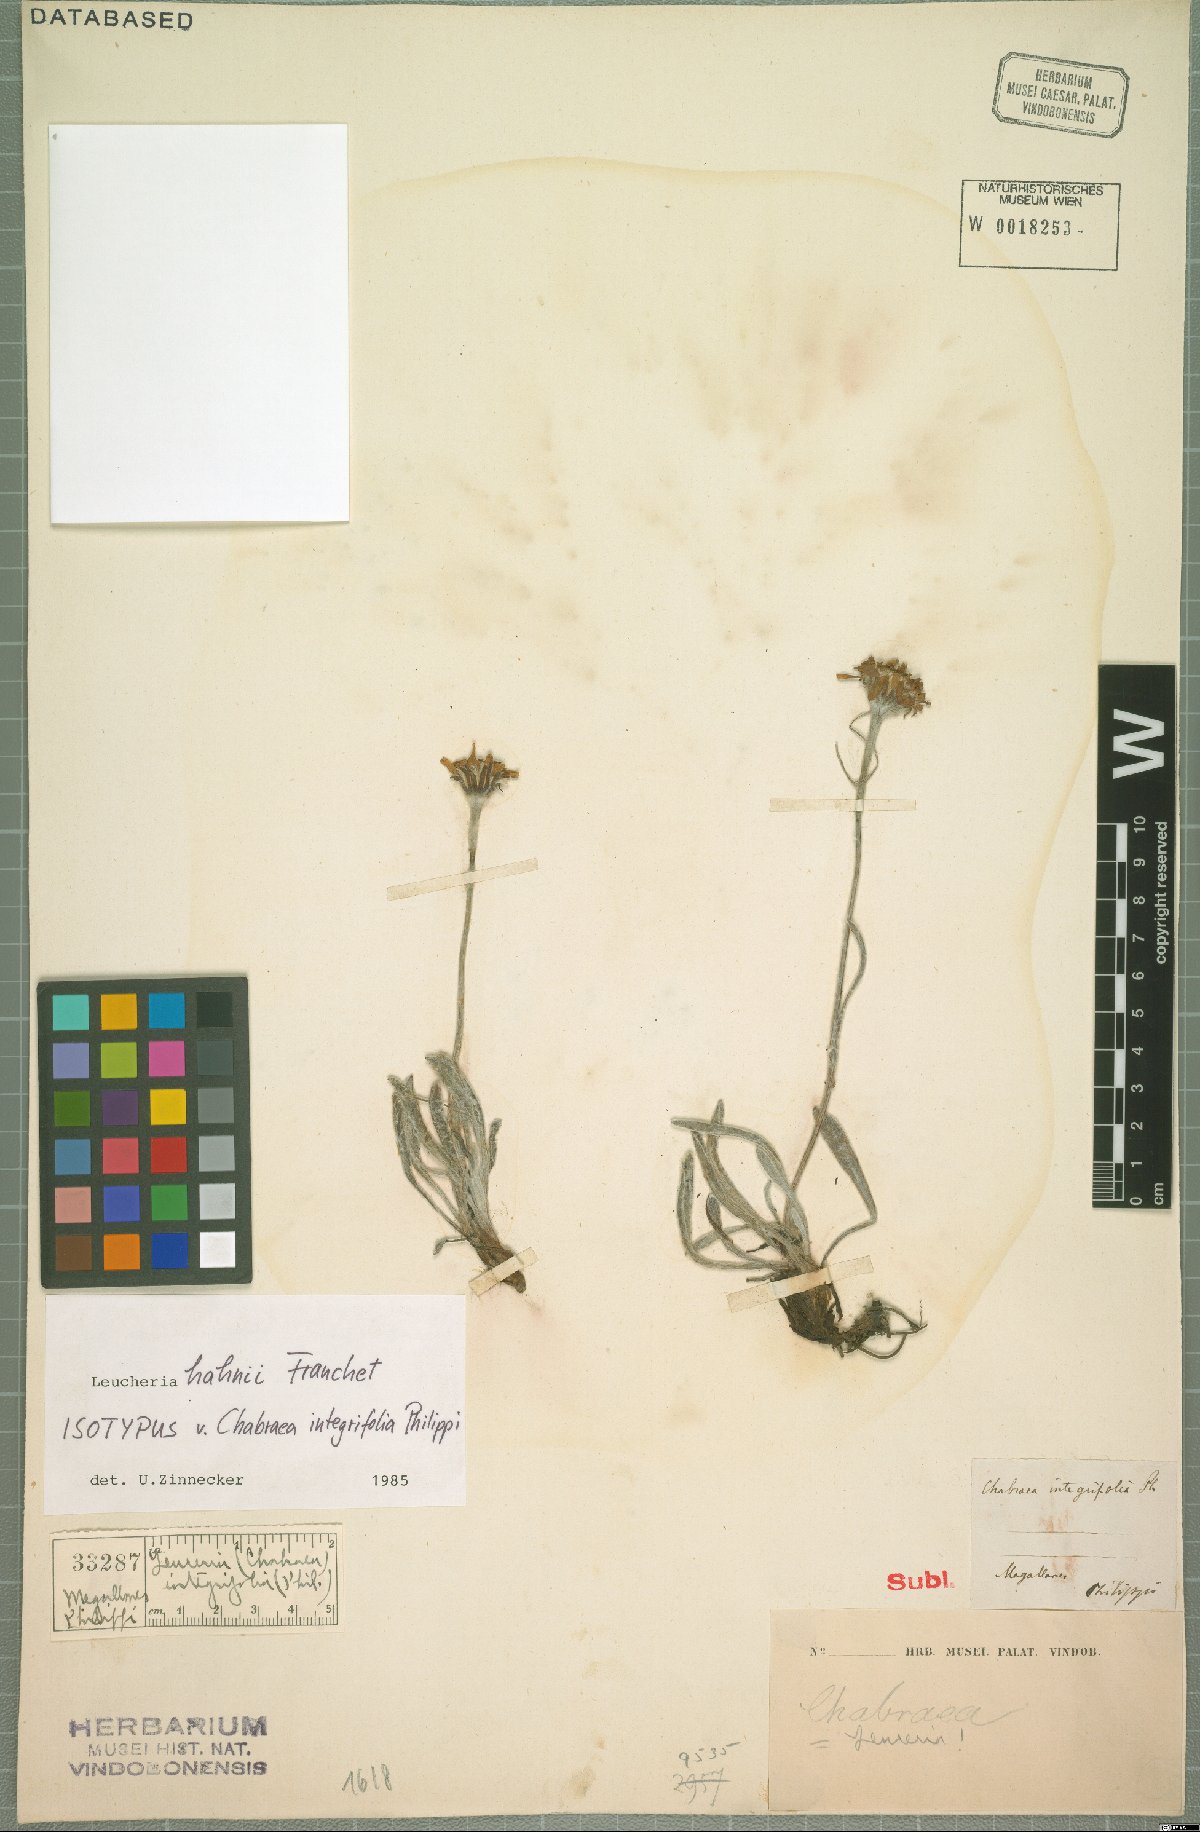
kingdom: Plantae
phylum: Tracheophyta
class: Magnoliopsida
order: Asterales
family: Asteraceae
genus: Leucheria
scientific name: Leucheria hahnii
